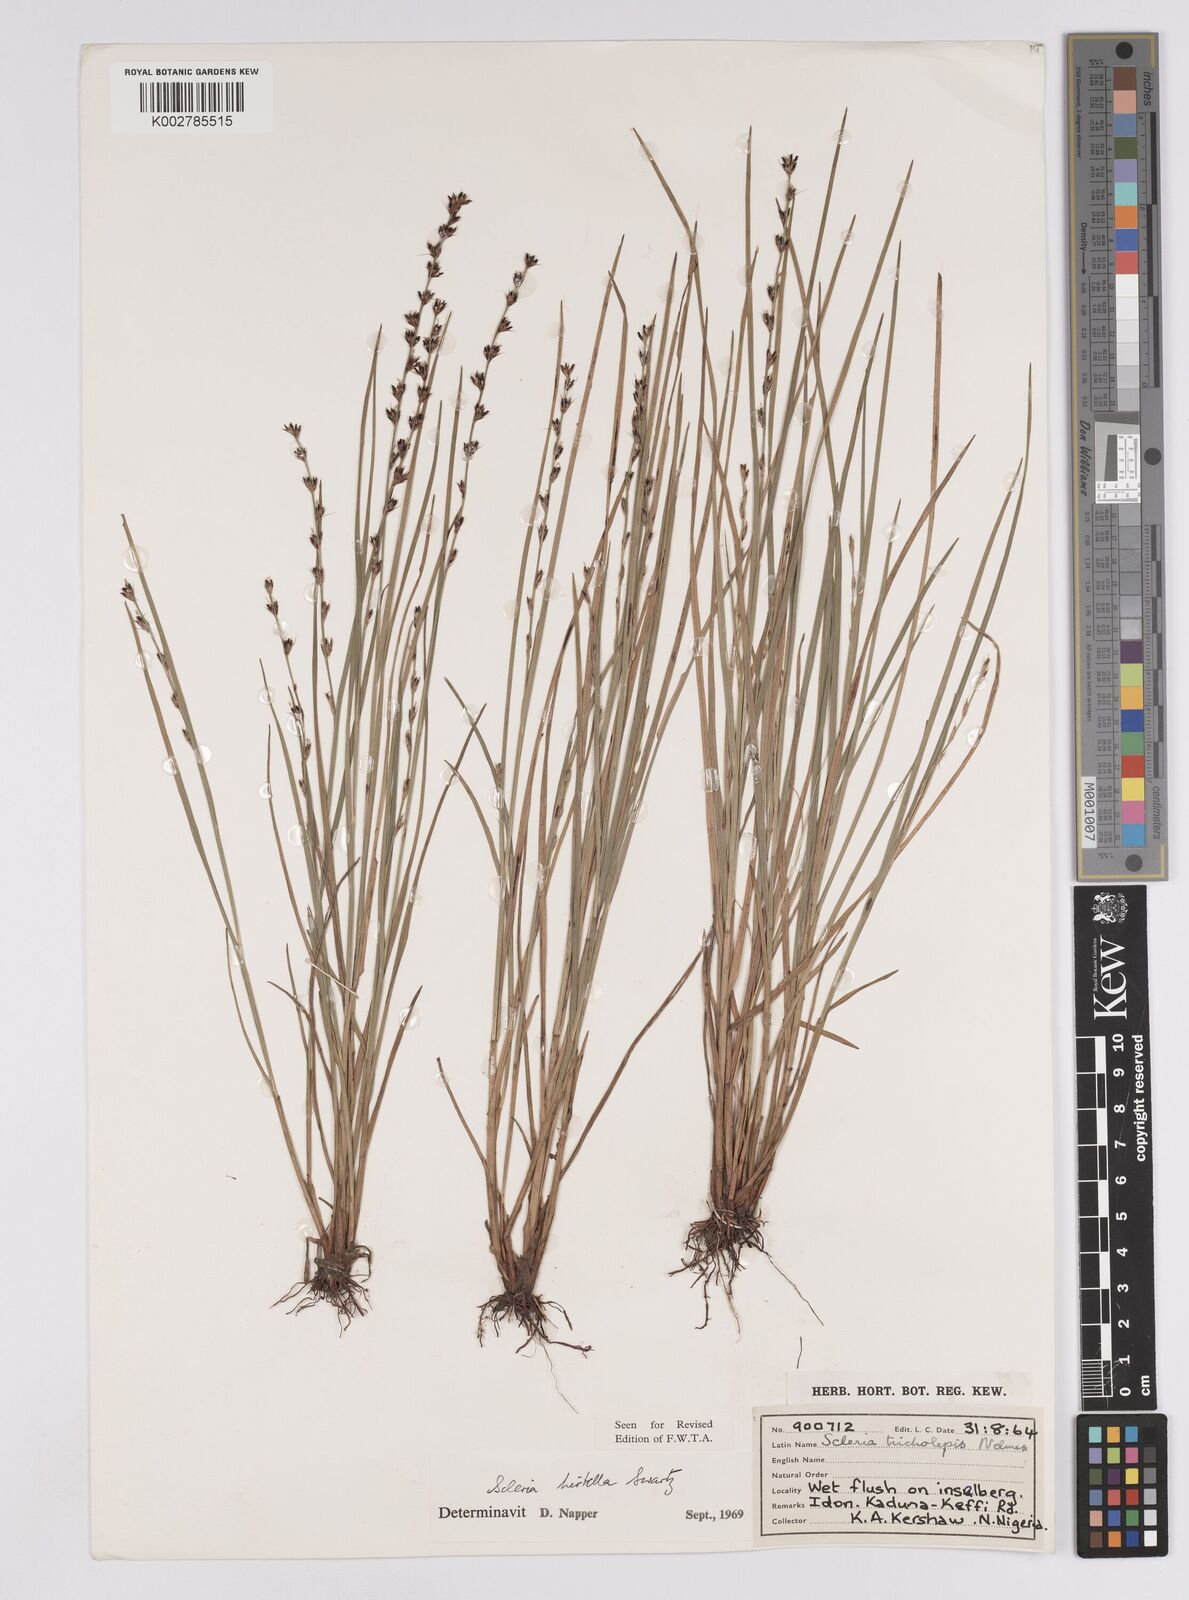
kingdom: Plantae
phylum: Tracheophyta
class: Liliopsida
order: Poales
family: Cyperaceae
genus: Scleria
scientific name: Scleria tricholepis
